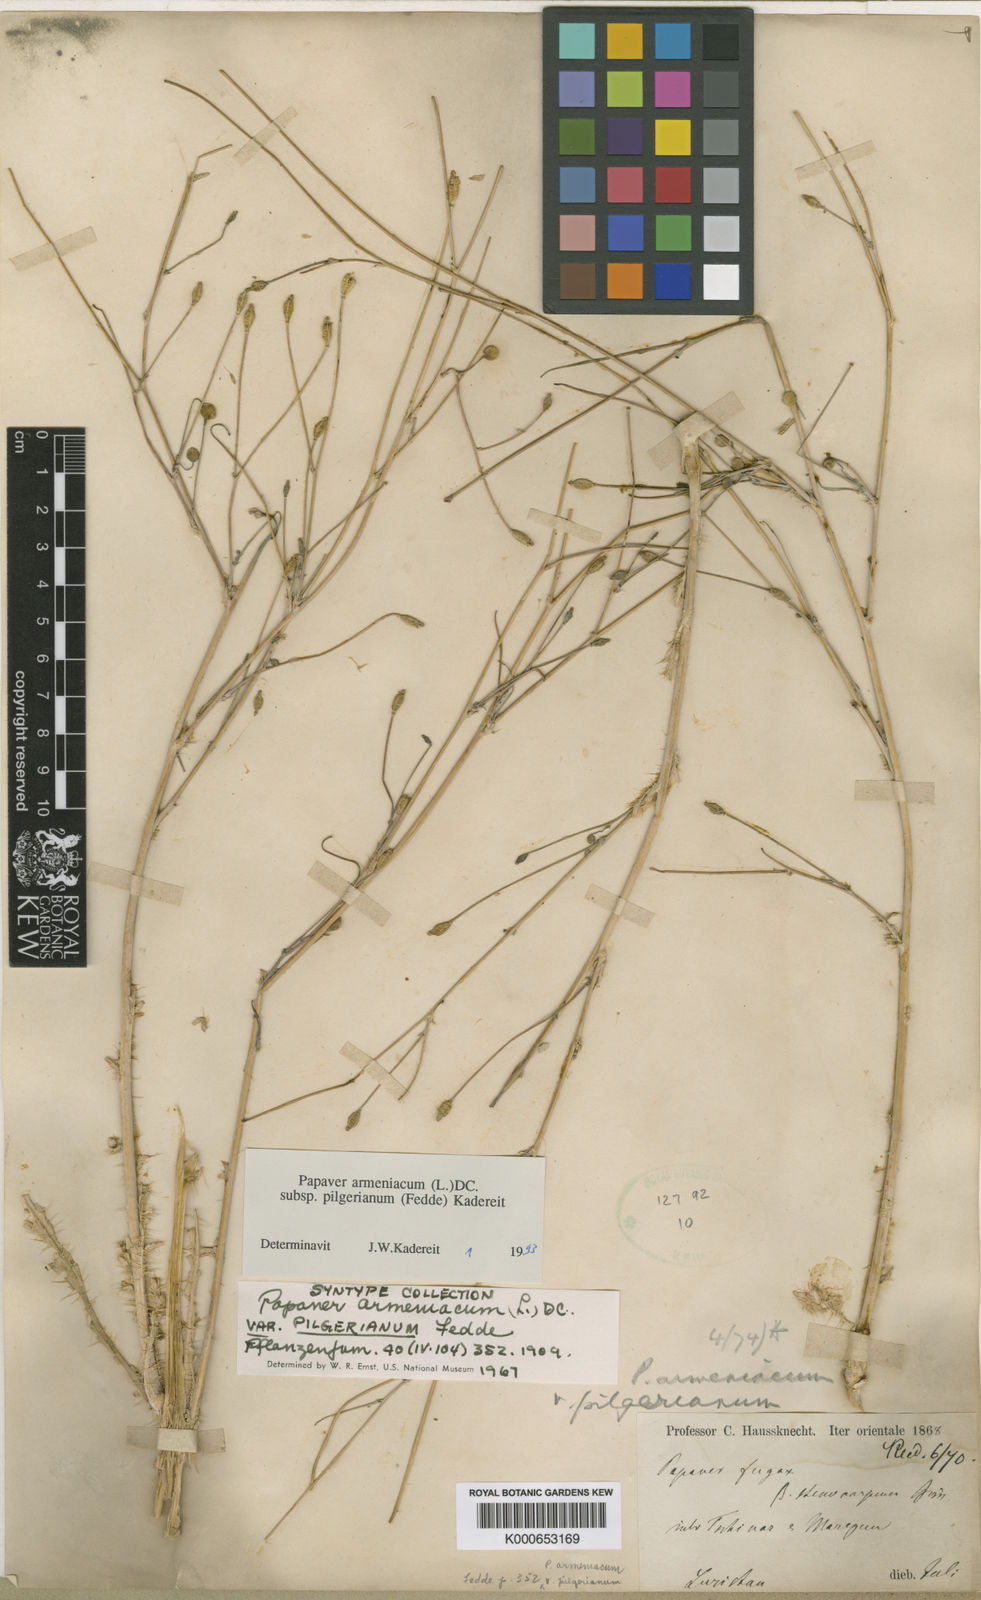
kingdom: Plantae
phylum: Tracheophyta
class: Magnoliopsida
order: Ranunculales
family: Papaveraceae
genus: Papaver
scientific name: Papaver armeniacum
